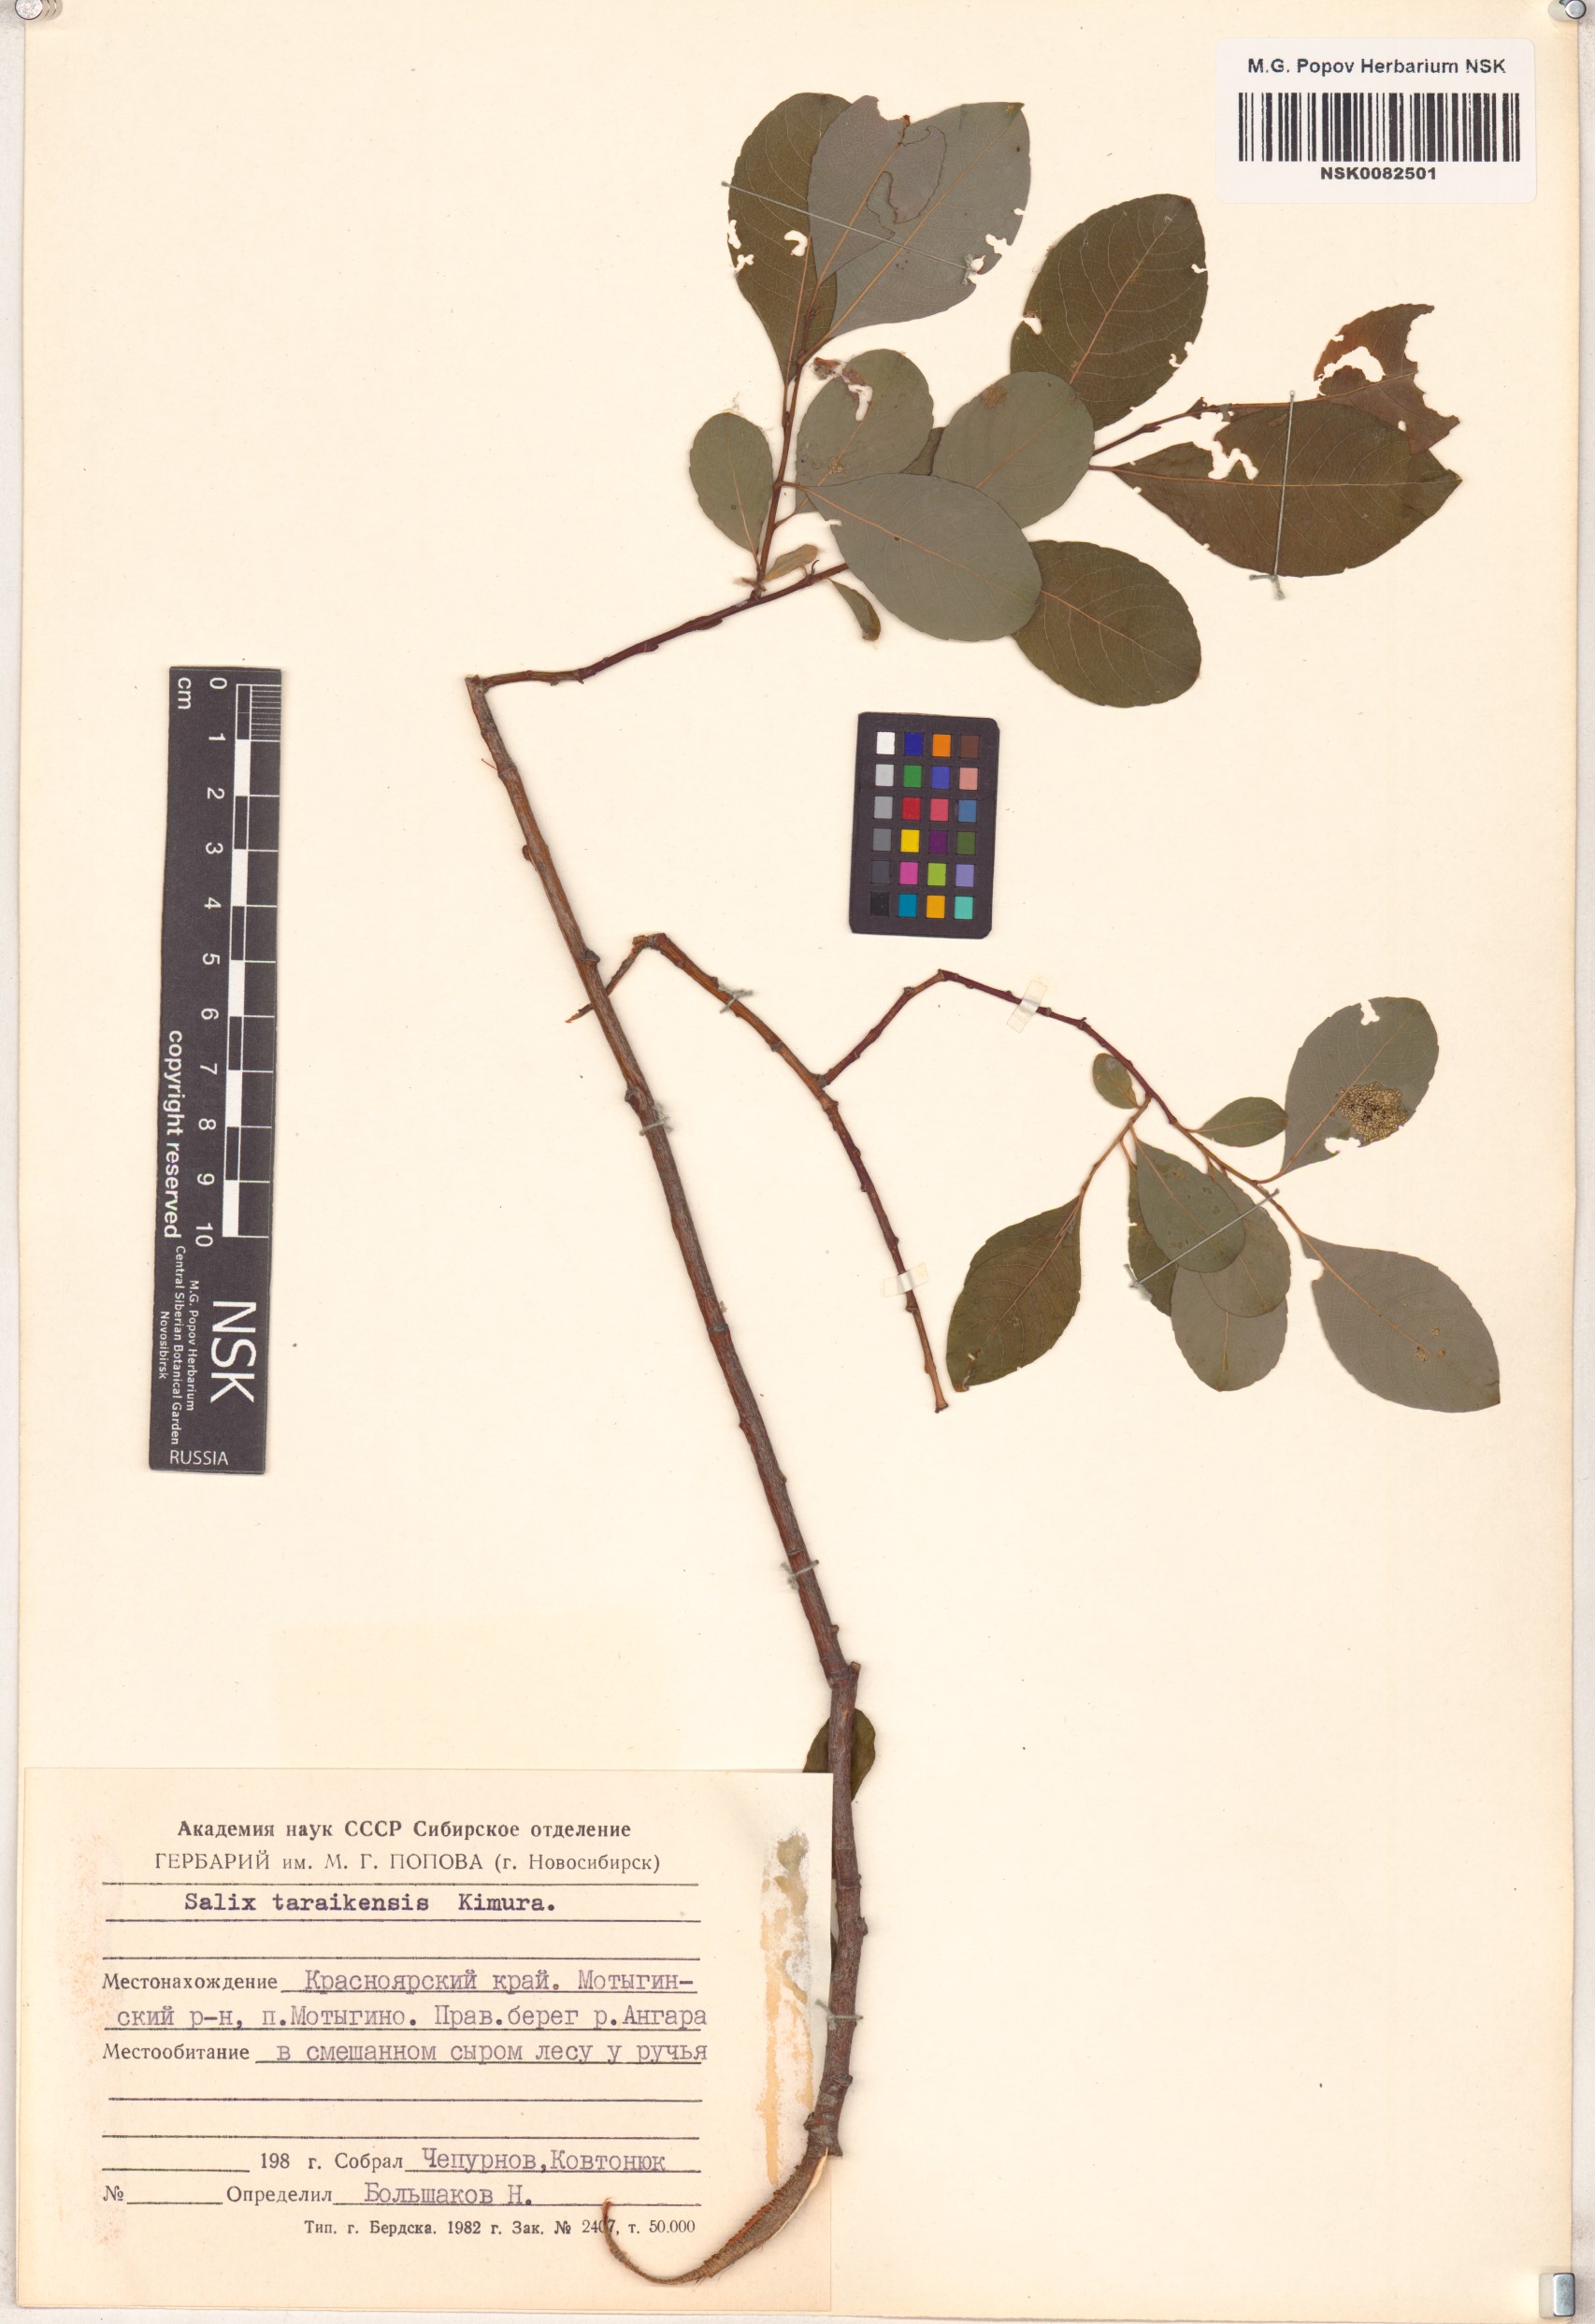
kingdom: Plantae
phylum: Tracheophyta
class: Magnoliopsida
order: Malpighiales
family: Salicaceae
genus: Salix
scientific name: Salix taraikensis
